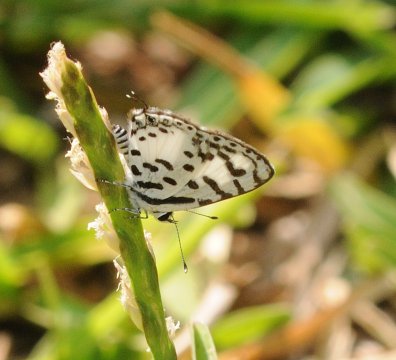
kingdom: Animalia
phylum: Arthropoda
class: Insecta
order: Lepidoptera
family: Lycaenidae
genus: Castalius
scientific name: Castalius calice
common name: White Pie
